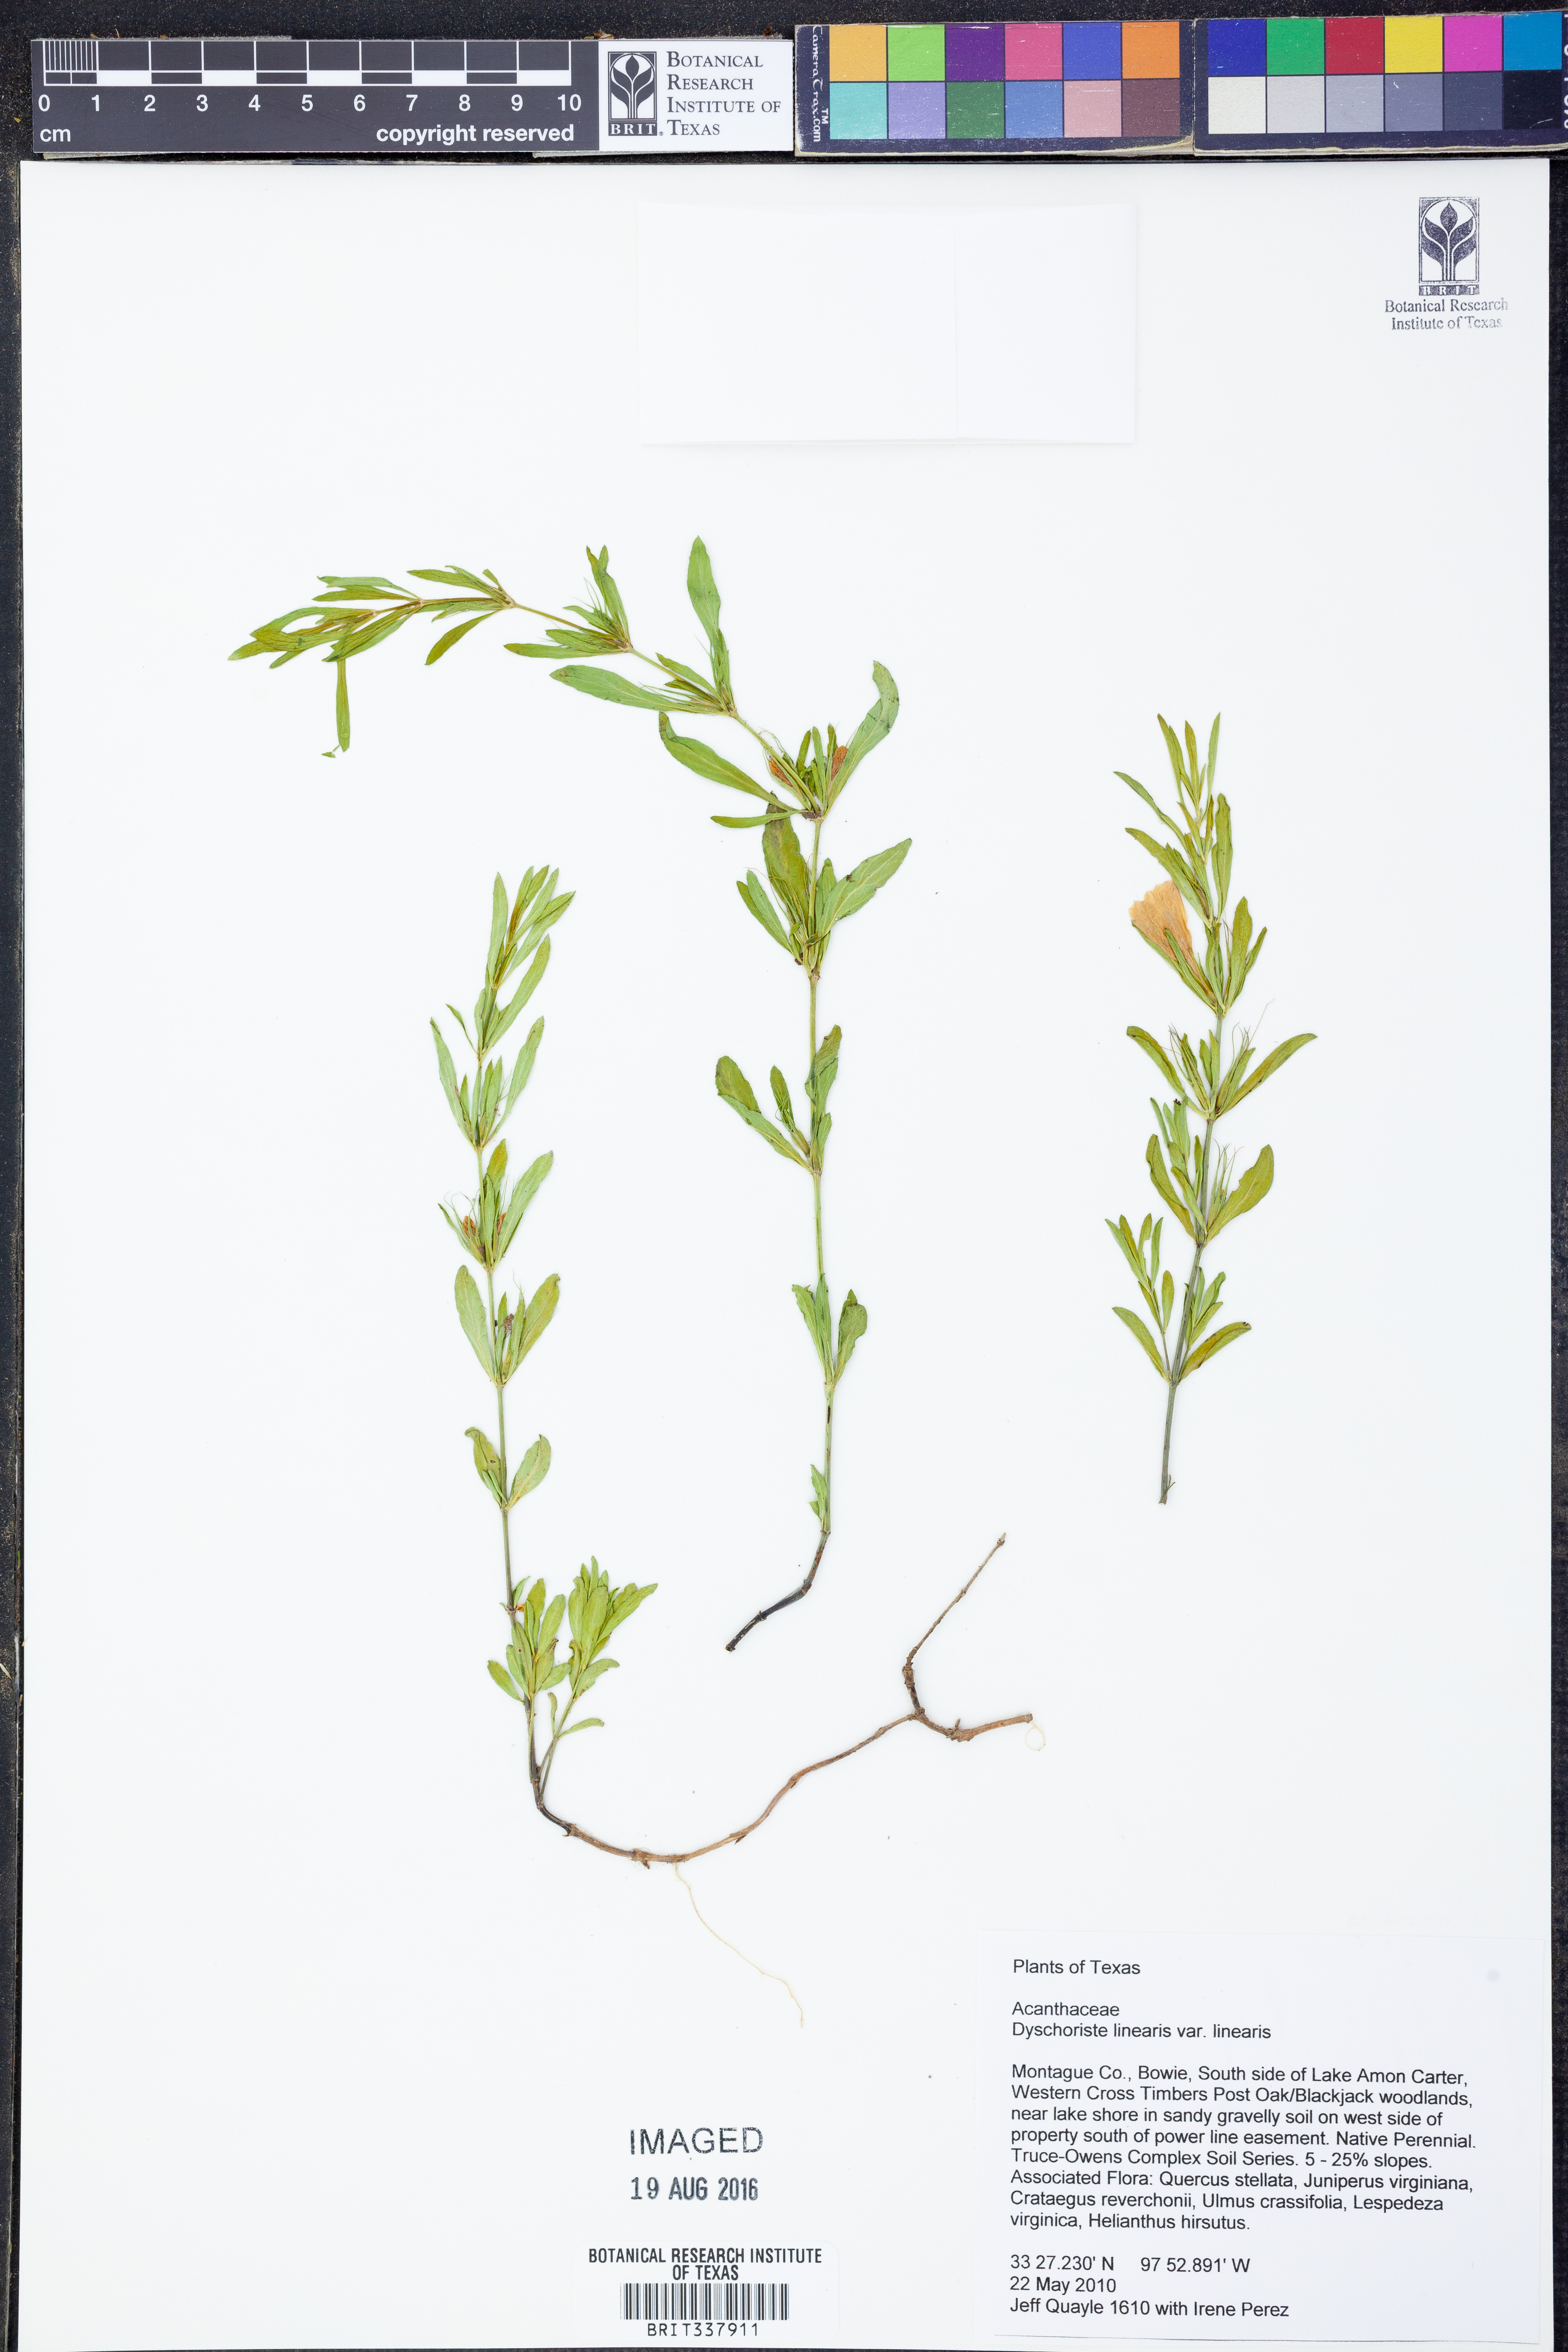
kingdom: Plantae
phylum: Tracheophyta
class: Magnoliopsida
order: Lamiales
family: Acanthaceae
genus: Dyschoriste
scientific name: Dyschoriste linearis
